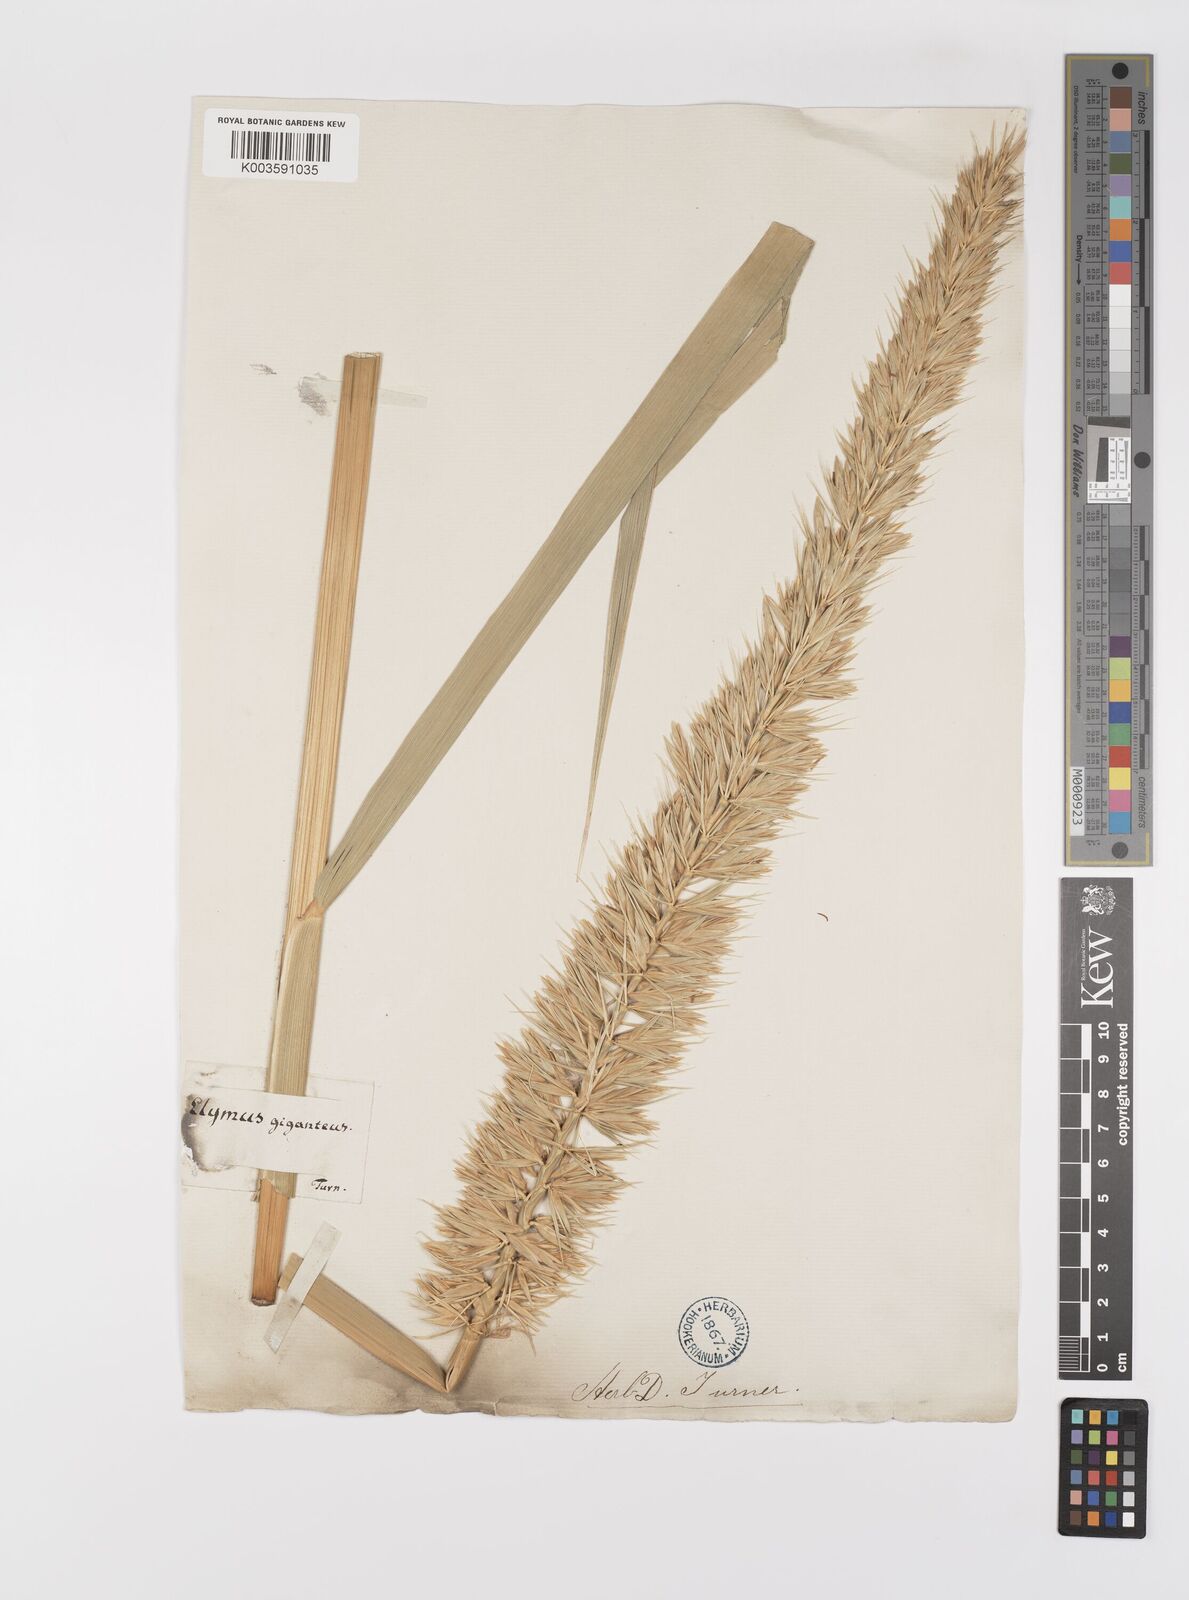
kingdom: Plantae
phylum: Tracheophyta
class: Liliopsida
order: Poales
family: Poaceae
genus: Leymus
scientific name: Leymus racemosus
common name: Mammoth wildrye
